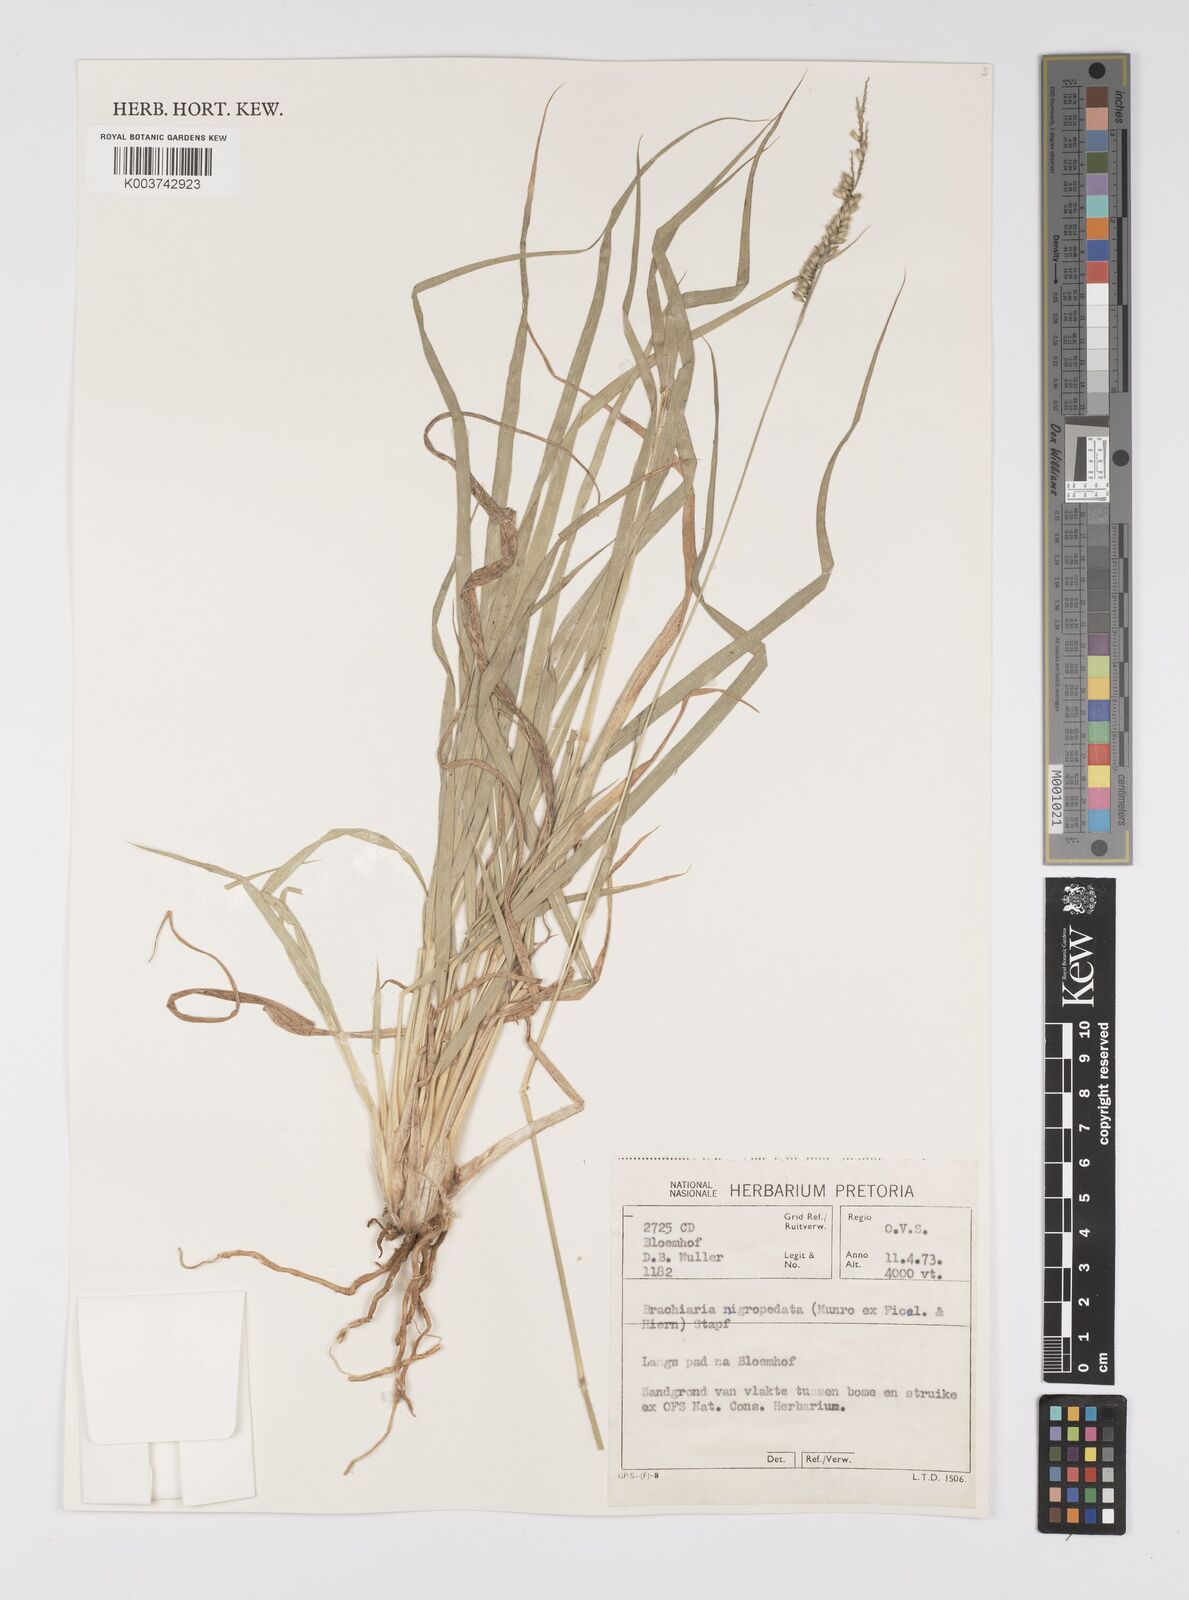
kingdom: Plantae
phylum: Tracheophyta
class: Liliopsida
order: Poales
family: Poaceae
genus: Urochloa
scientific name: Urochloa nigropedata
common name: Spotted signal grass
